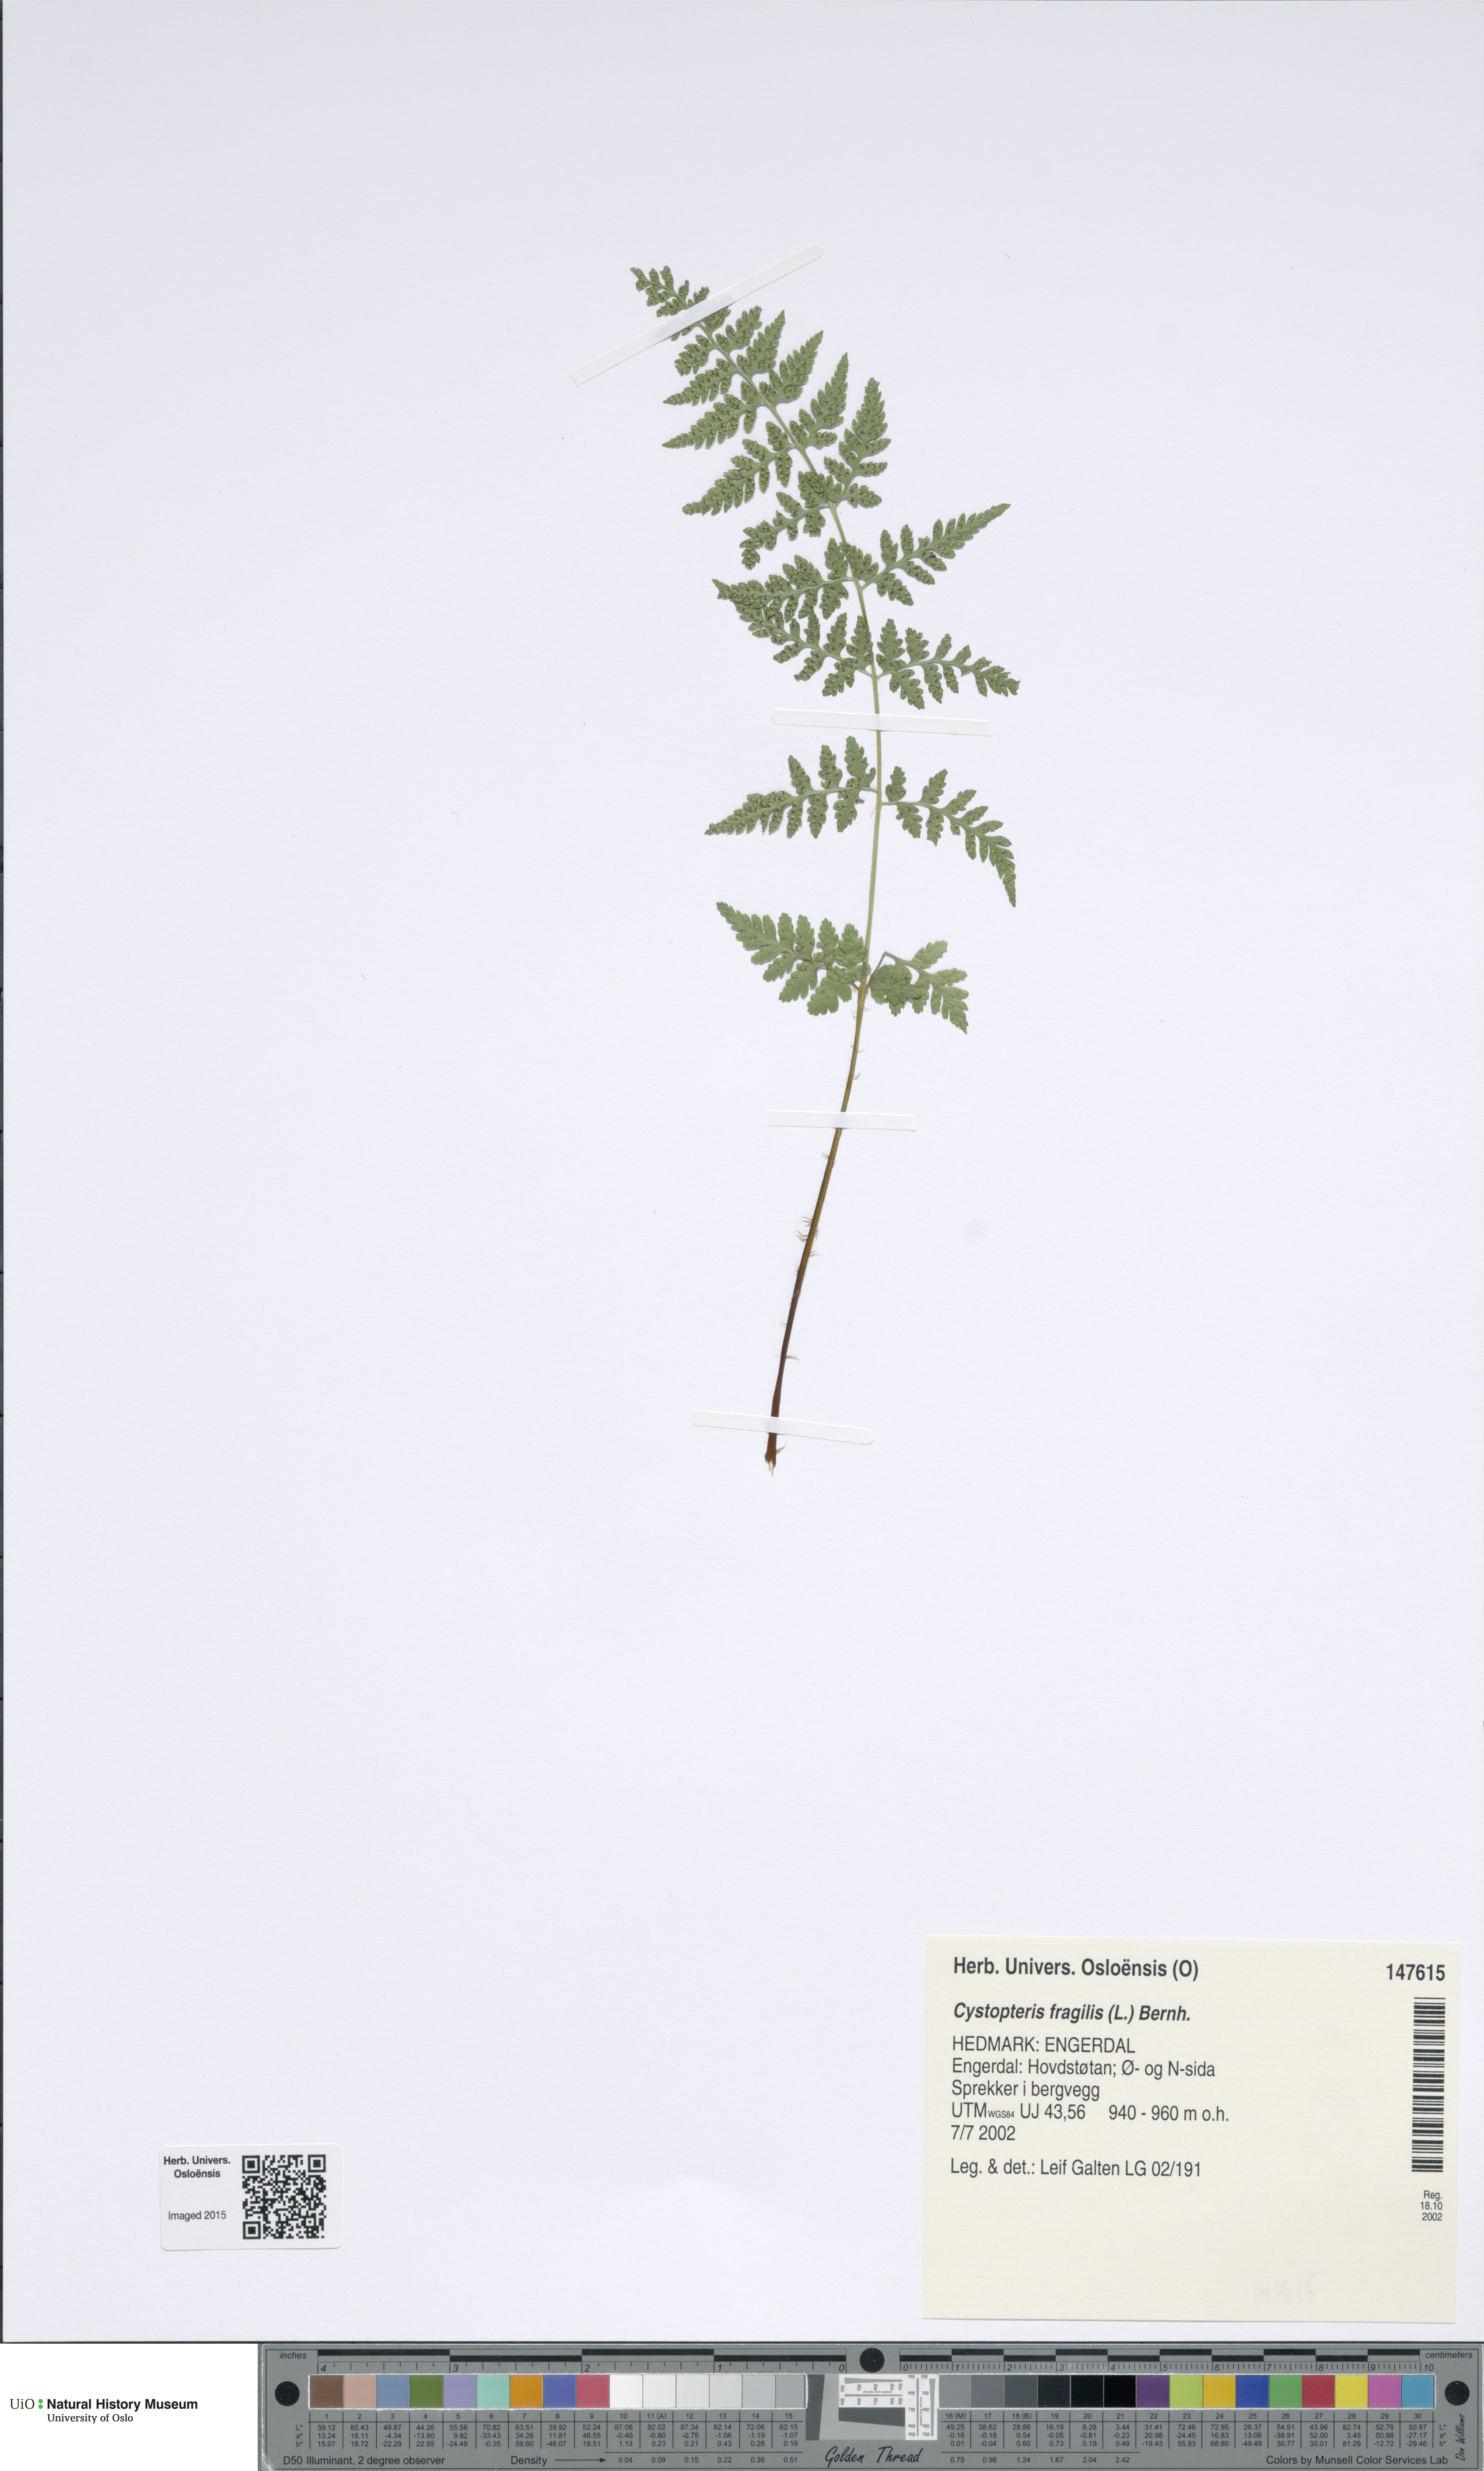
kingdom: Plantae
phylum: Tracheophyta
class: Polypodiopsida
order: Polypodiales
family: Cystopteridaceae
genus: Cystopteris
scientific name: Cystopteris fragilis
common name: Brittle bladder fern
